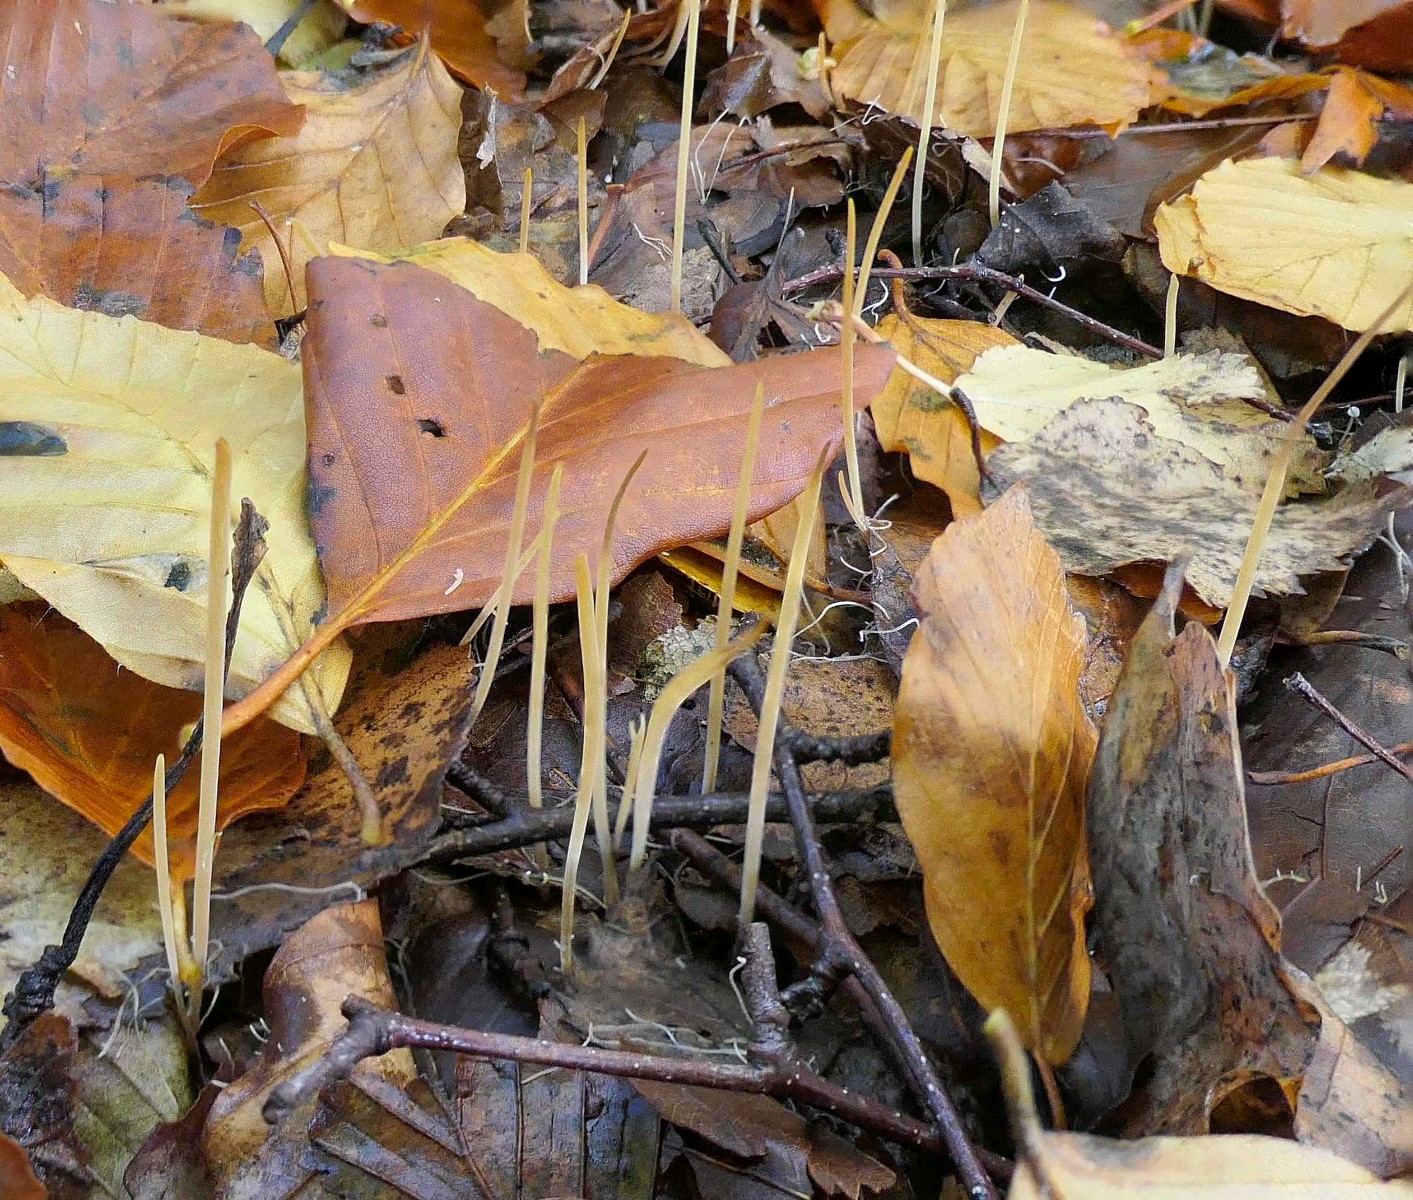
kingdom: Fungi
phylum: Basidiomycota
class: Agaricomycetes
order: Agaricales
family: Typhulaceae
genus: Typhula
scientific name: Typhula juncea
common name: trådagtig rørkølle
